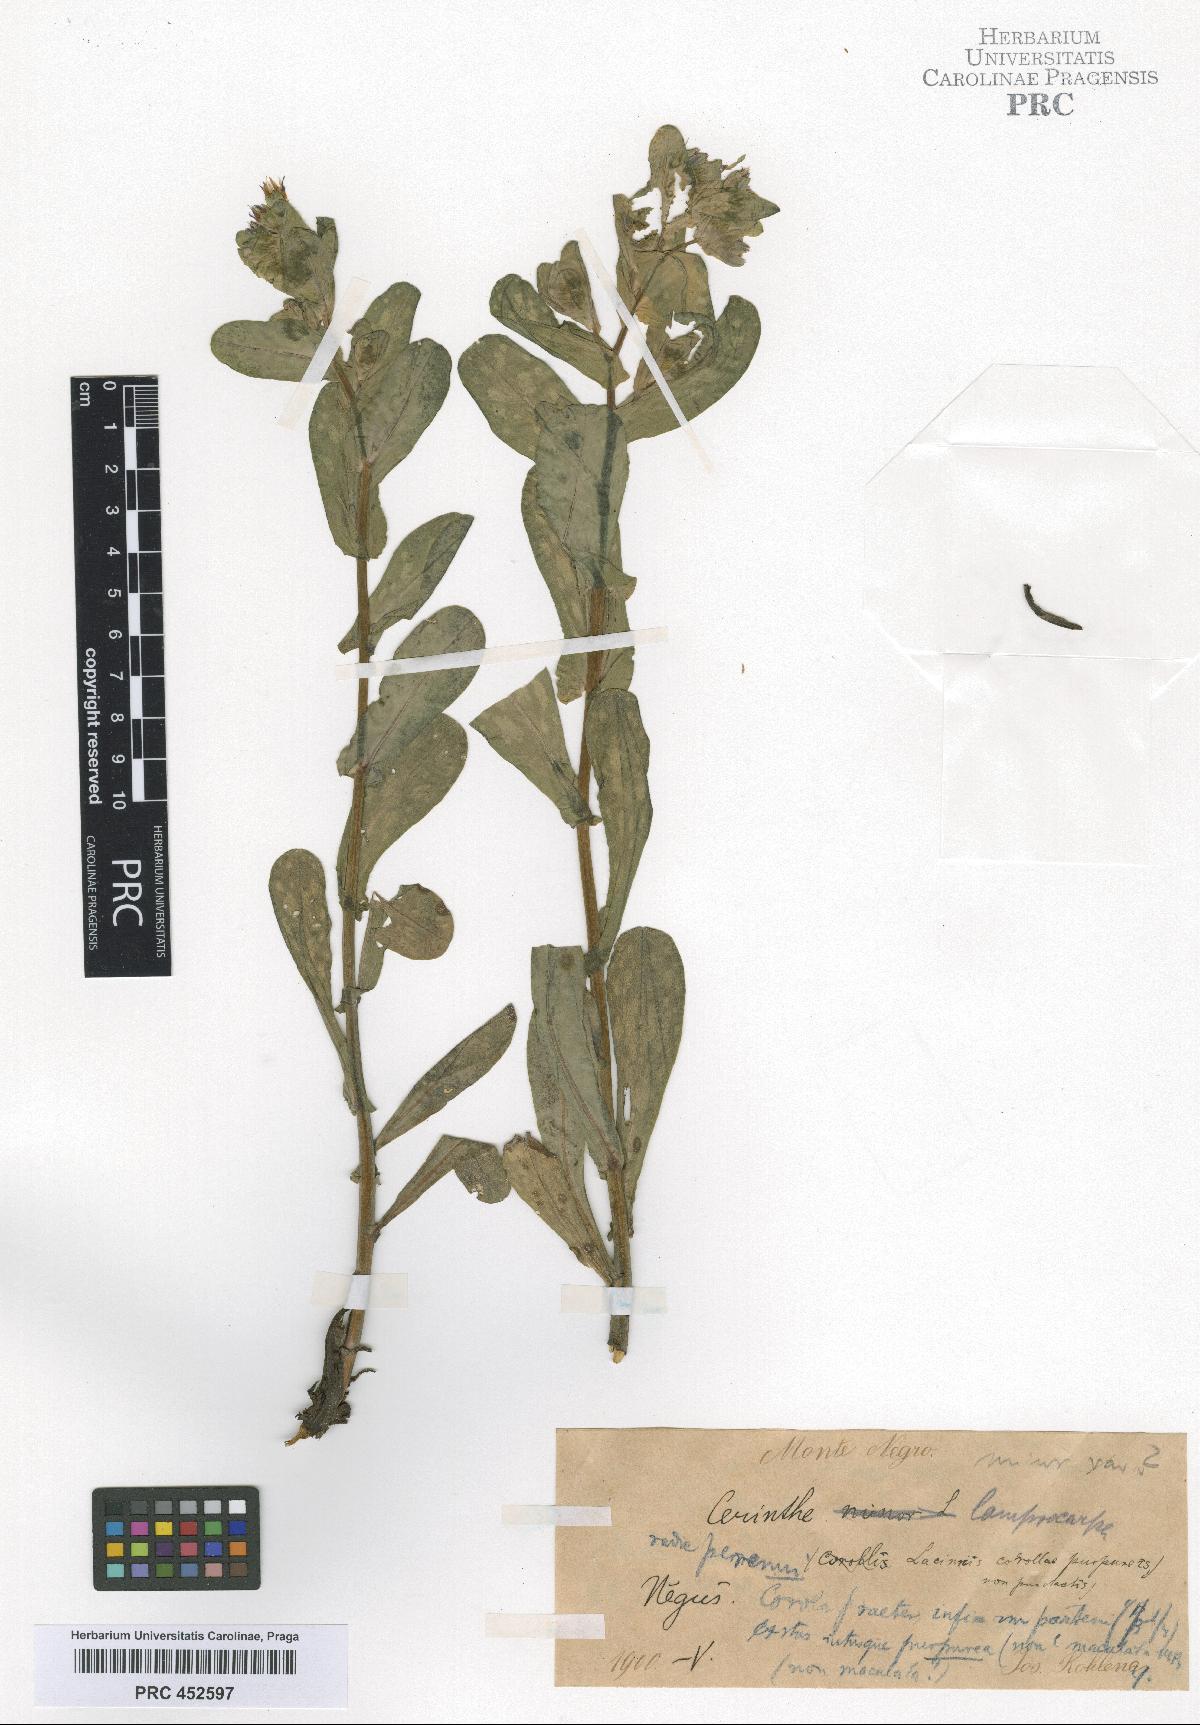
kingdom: Plantae
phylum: Tracheophyta
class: Magnoliopsida
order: Boraginales
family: Boraginaceae
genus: Cerinthe
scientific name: Cerinthe minor
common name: Lesser honeywort
